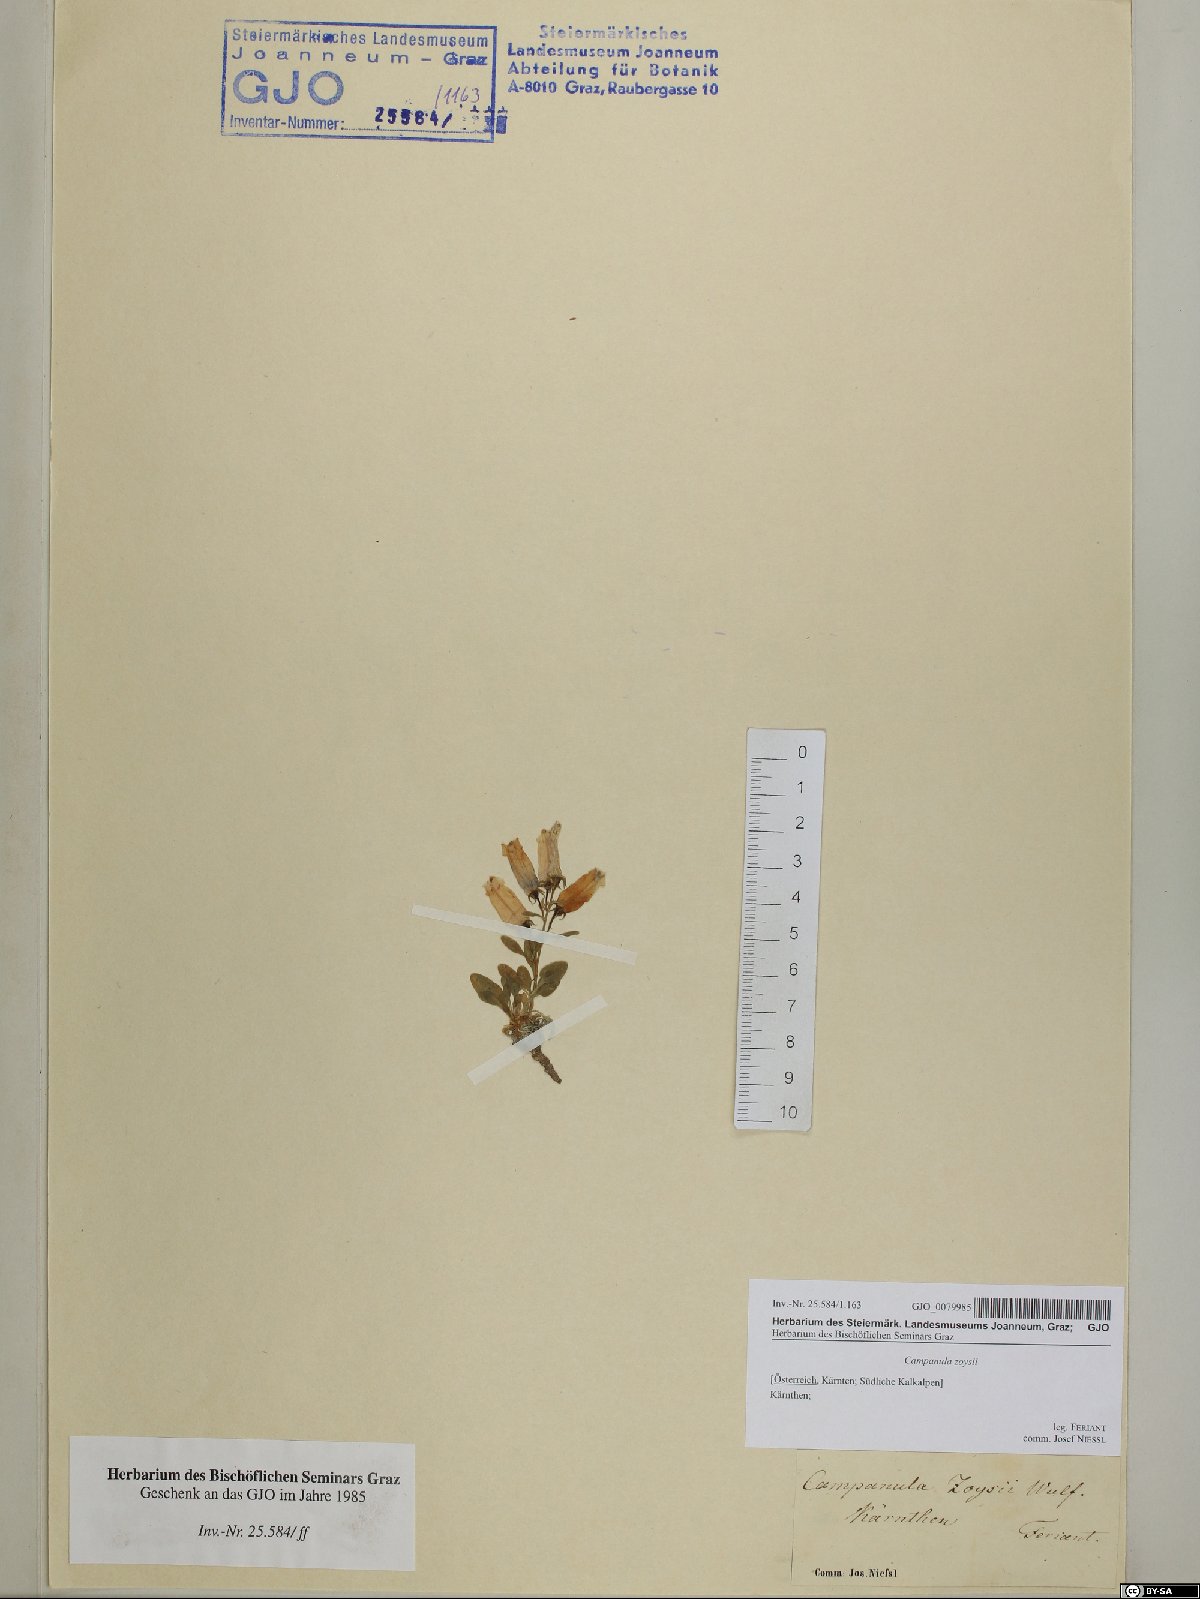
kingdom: Plantae
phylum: Tracheophyta
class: Magnoliopsida
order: Asterales
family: Campanulaceae
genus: Favratia
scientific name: Favratia zoysii
